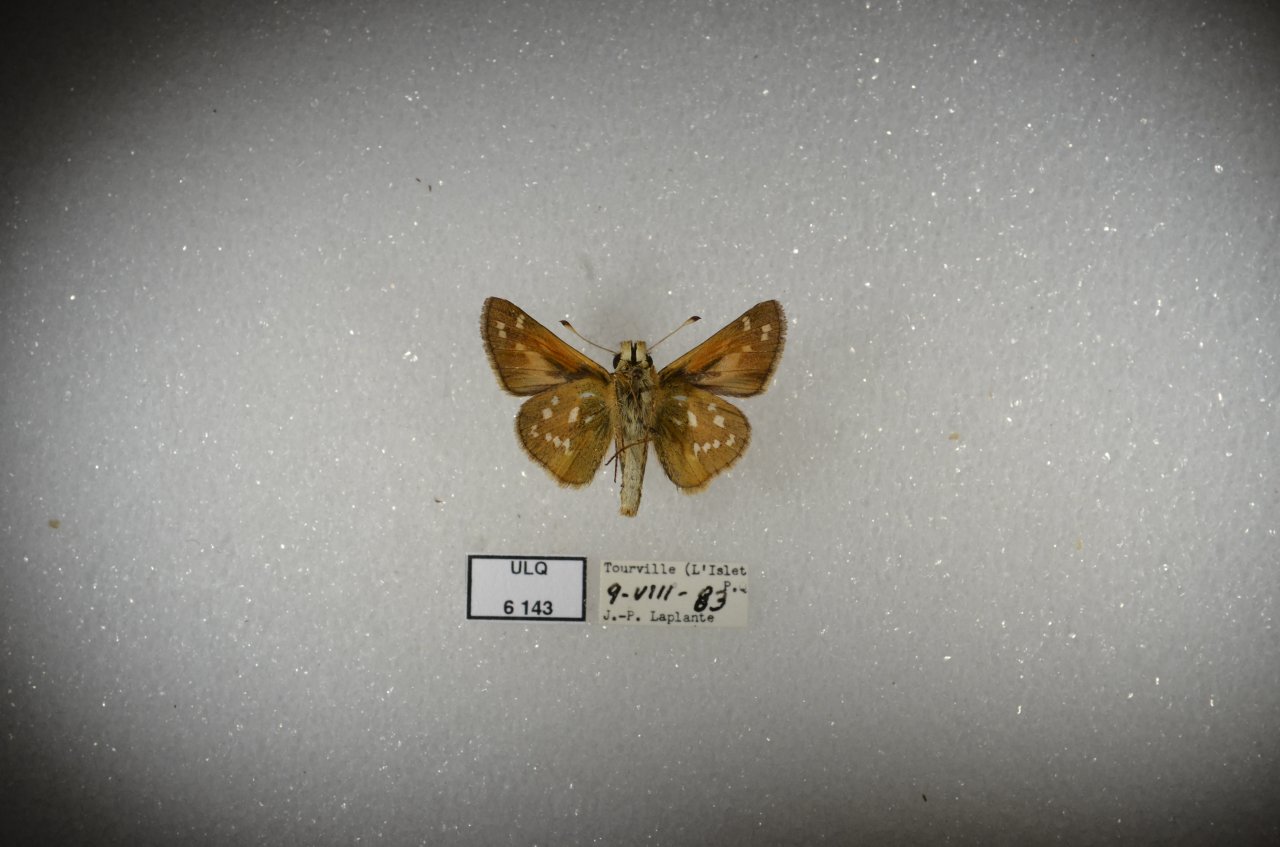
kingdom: Animalia
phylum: Arthropoda
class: Insecta
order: Lepidoptera
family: Hesperiidae
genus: Hesperia
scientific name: Hesperia comma
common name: Common Branded Skipper
